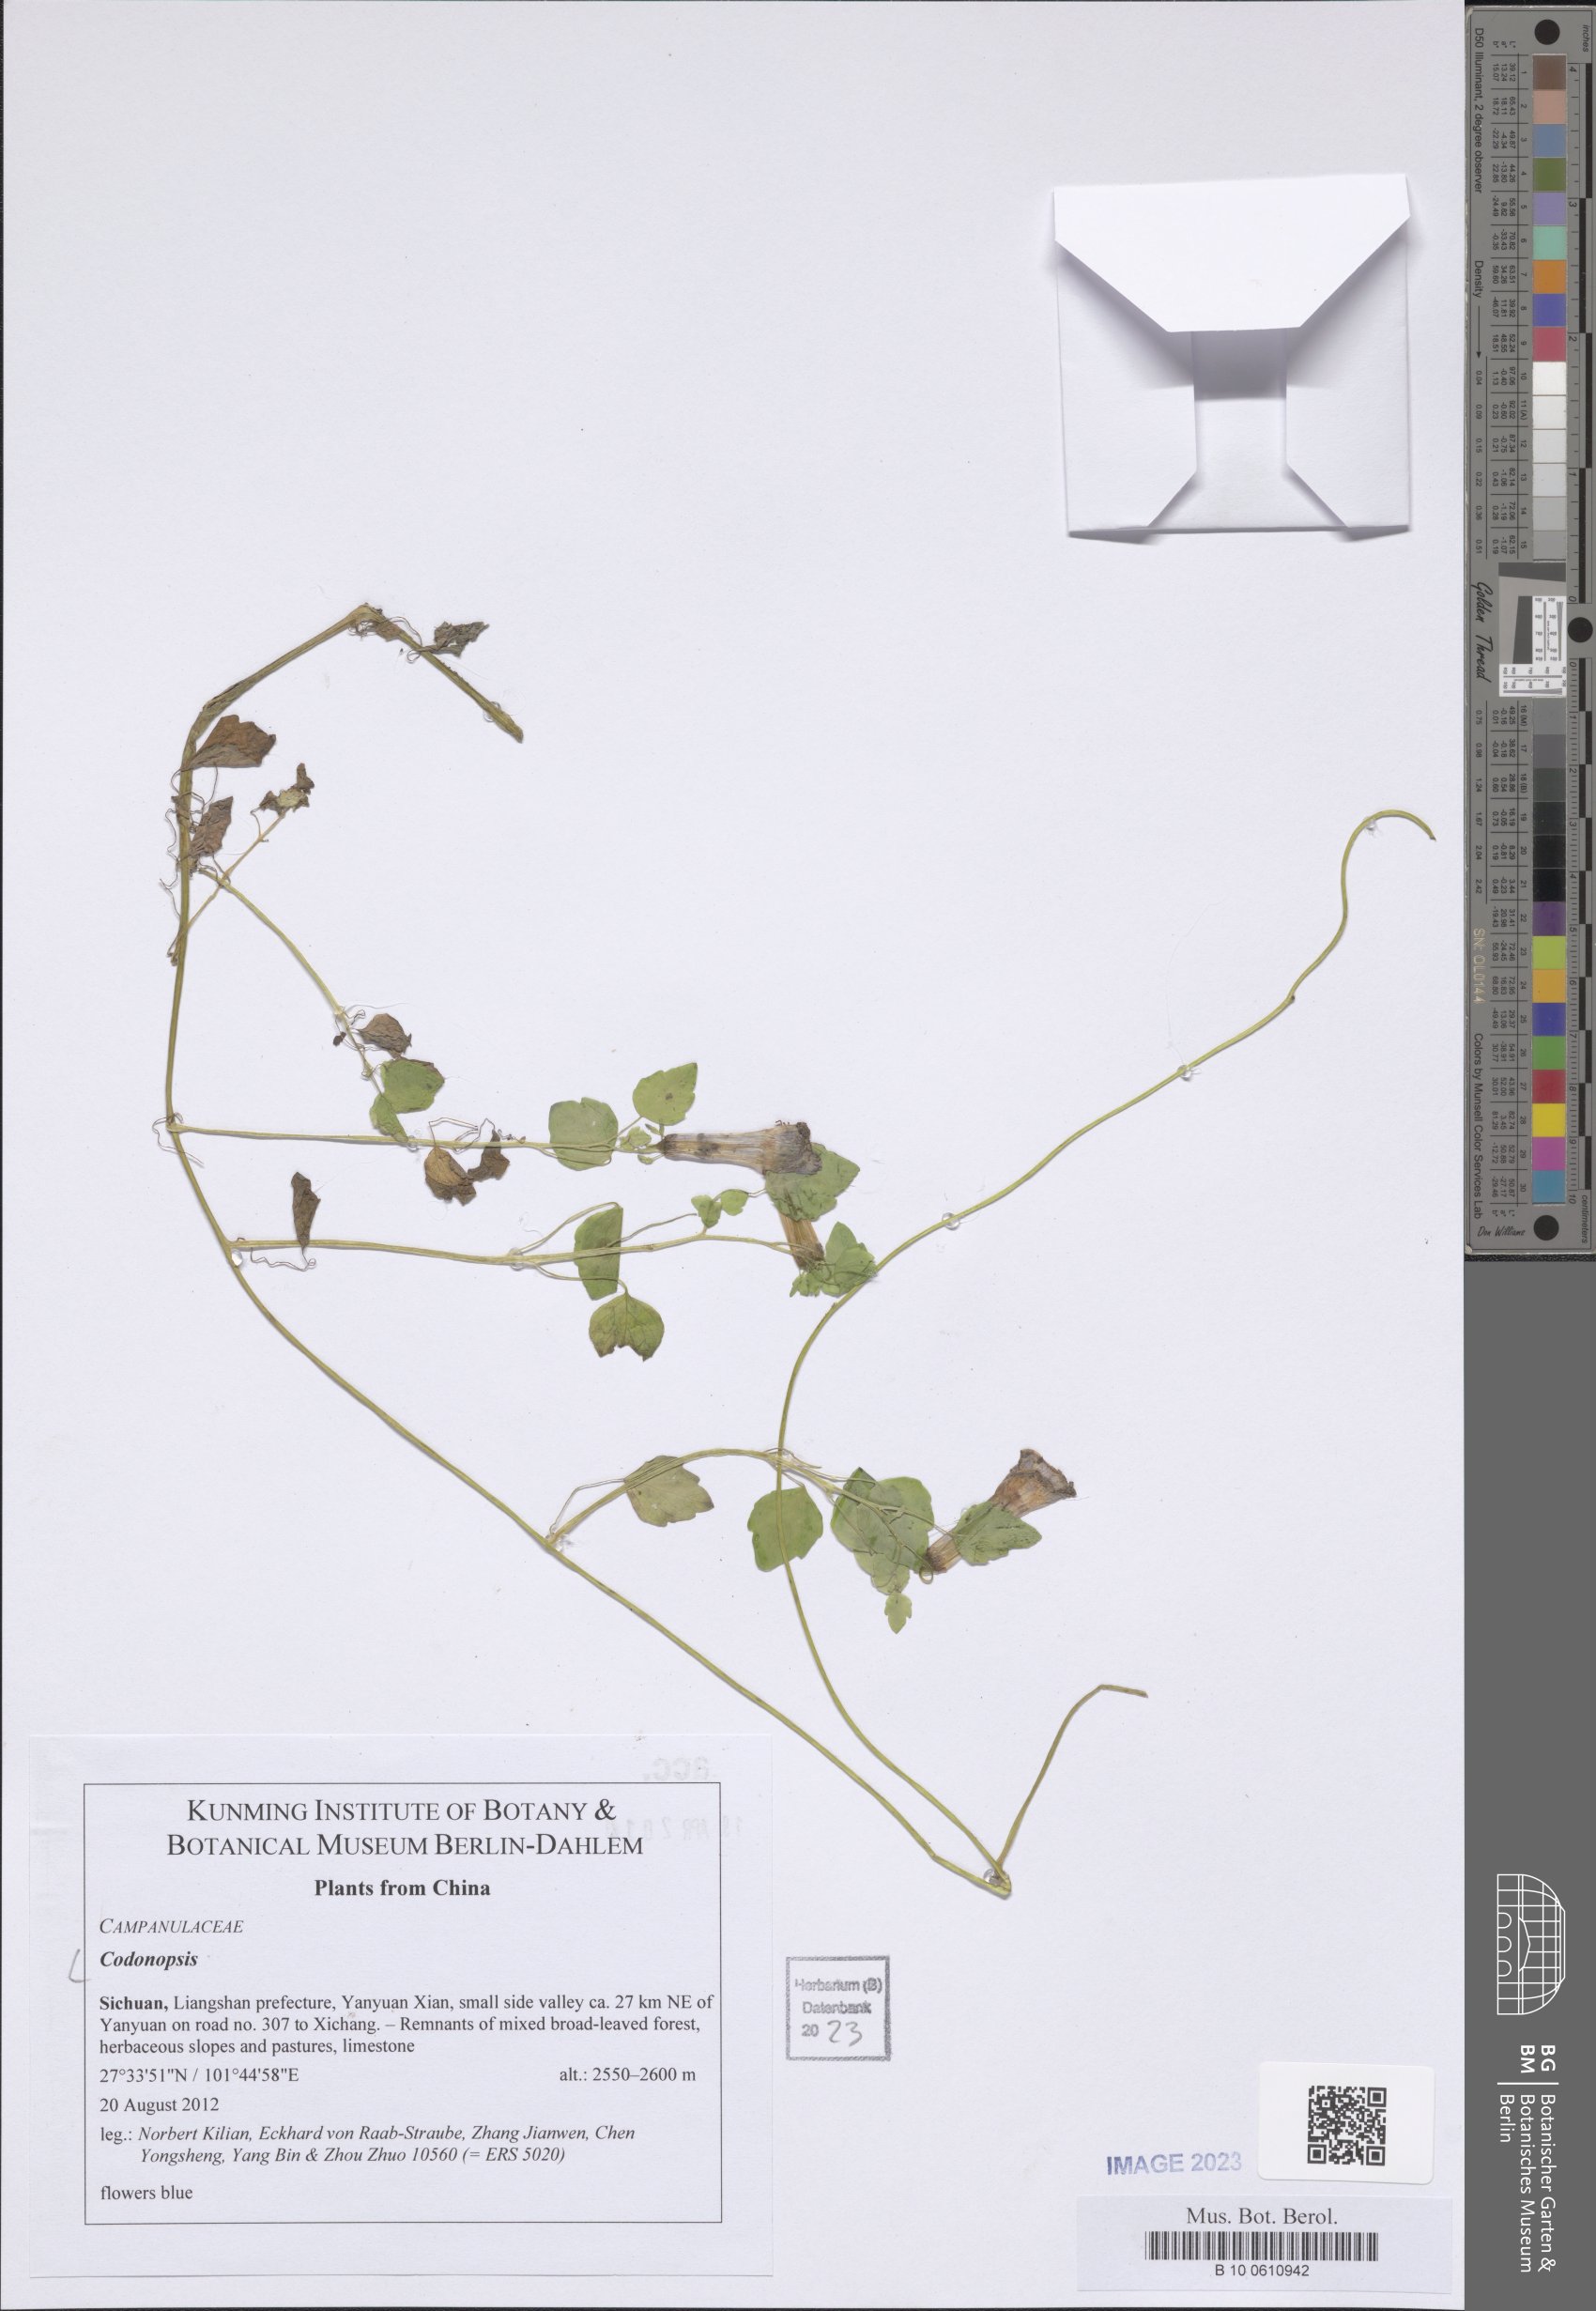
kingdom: Plantae
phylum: Tracheophyta
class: Magnoliopsida
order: Asterales
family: Campanulaceae
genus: Codonopsis
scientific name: Codonopsis
